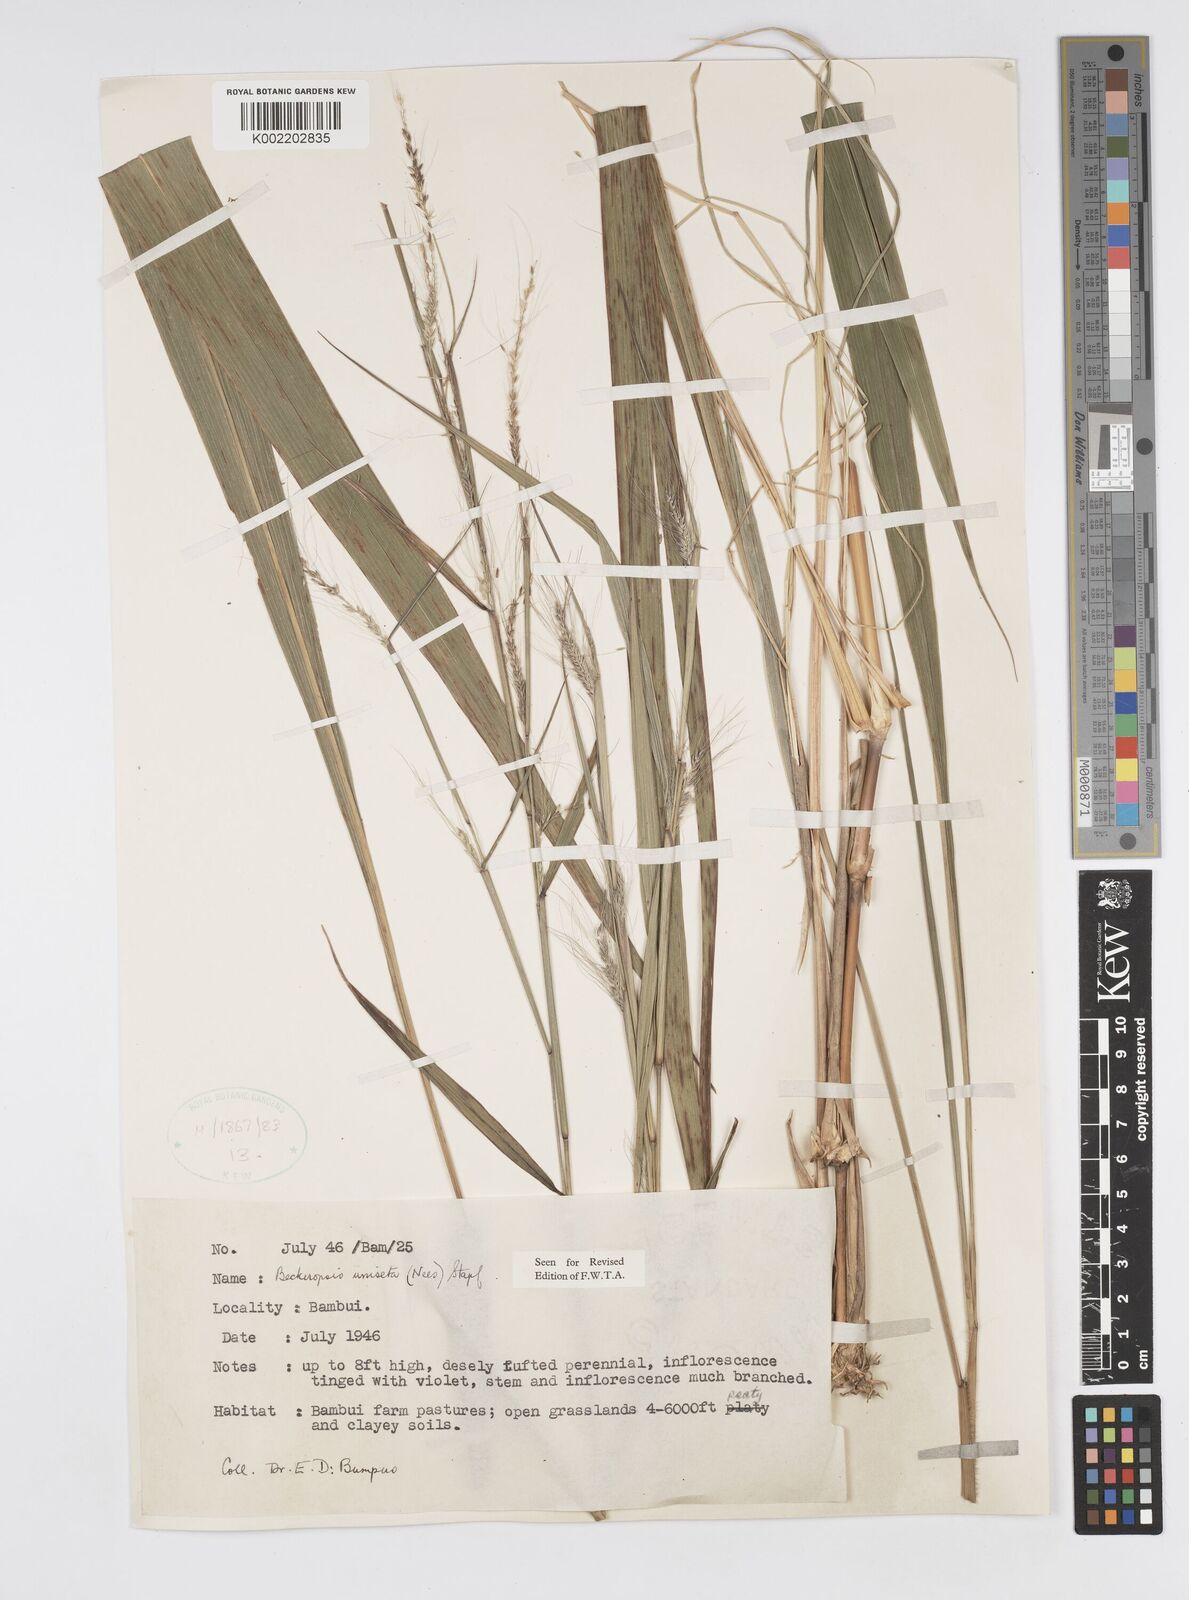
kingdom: Plantae
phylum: Tracheophyta
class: Liliopsida
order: Poales
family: Poaceae
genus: Cenchrus
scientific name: Cenchrus unisetus
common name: Natal grass
